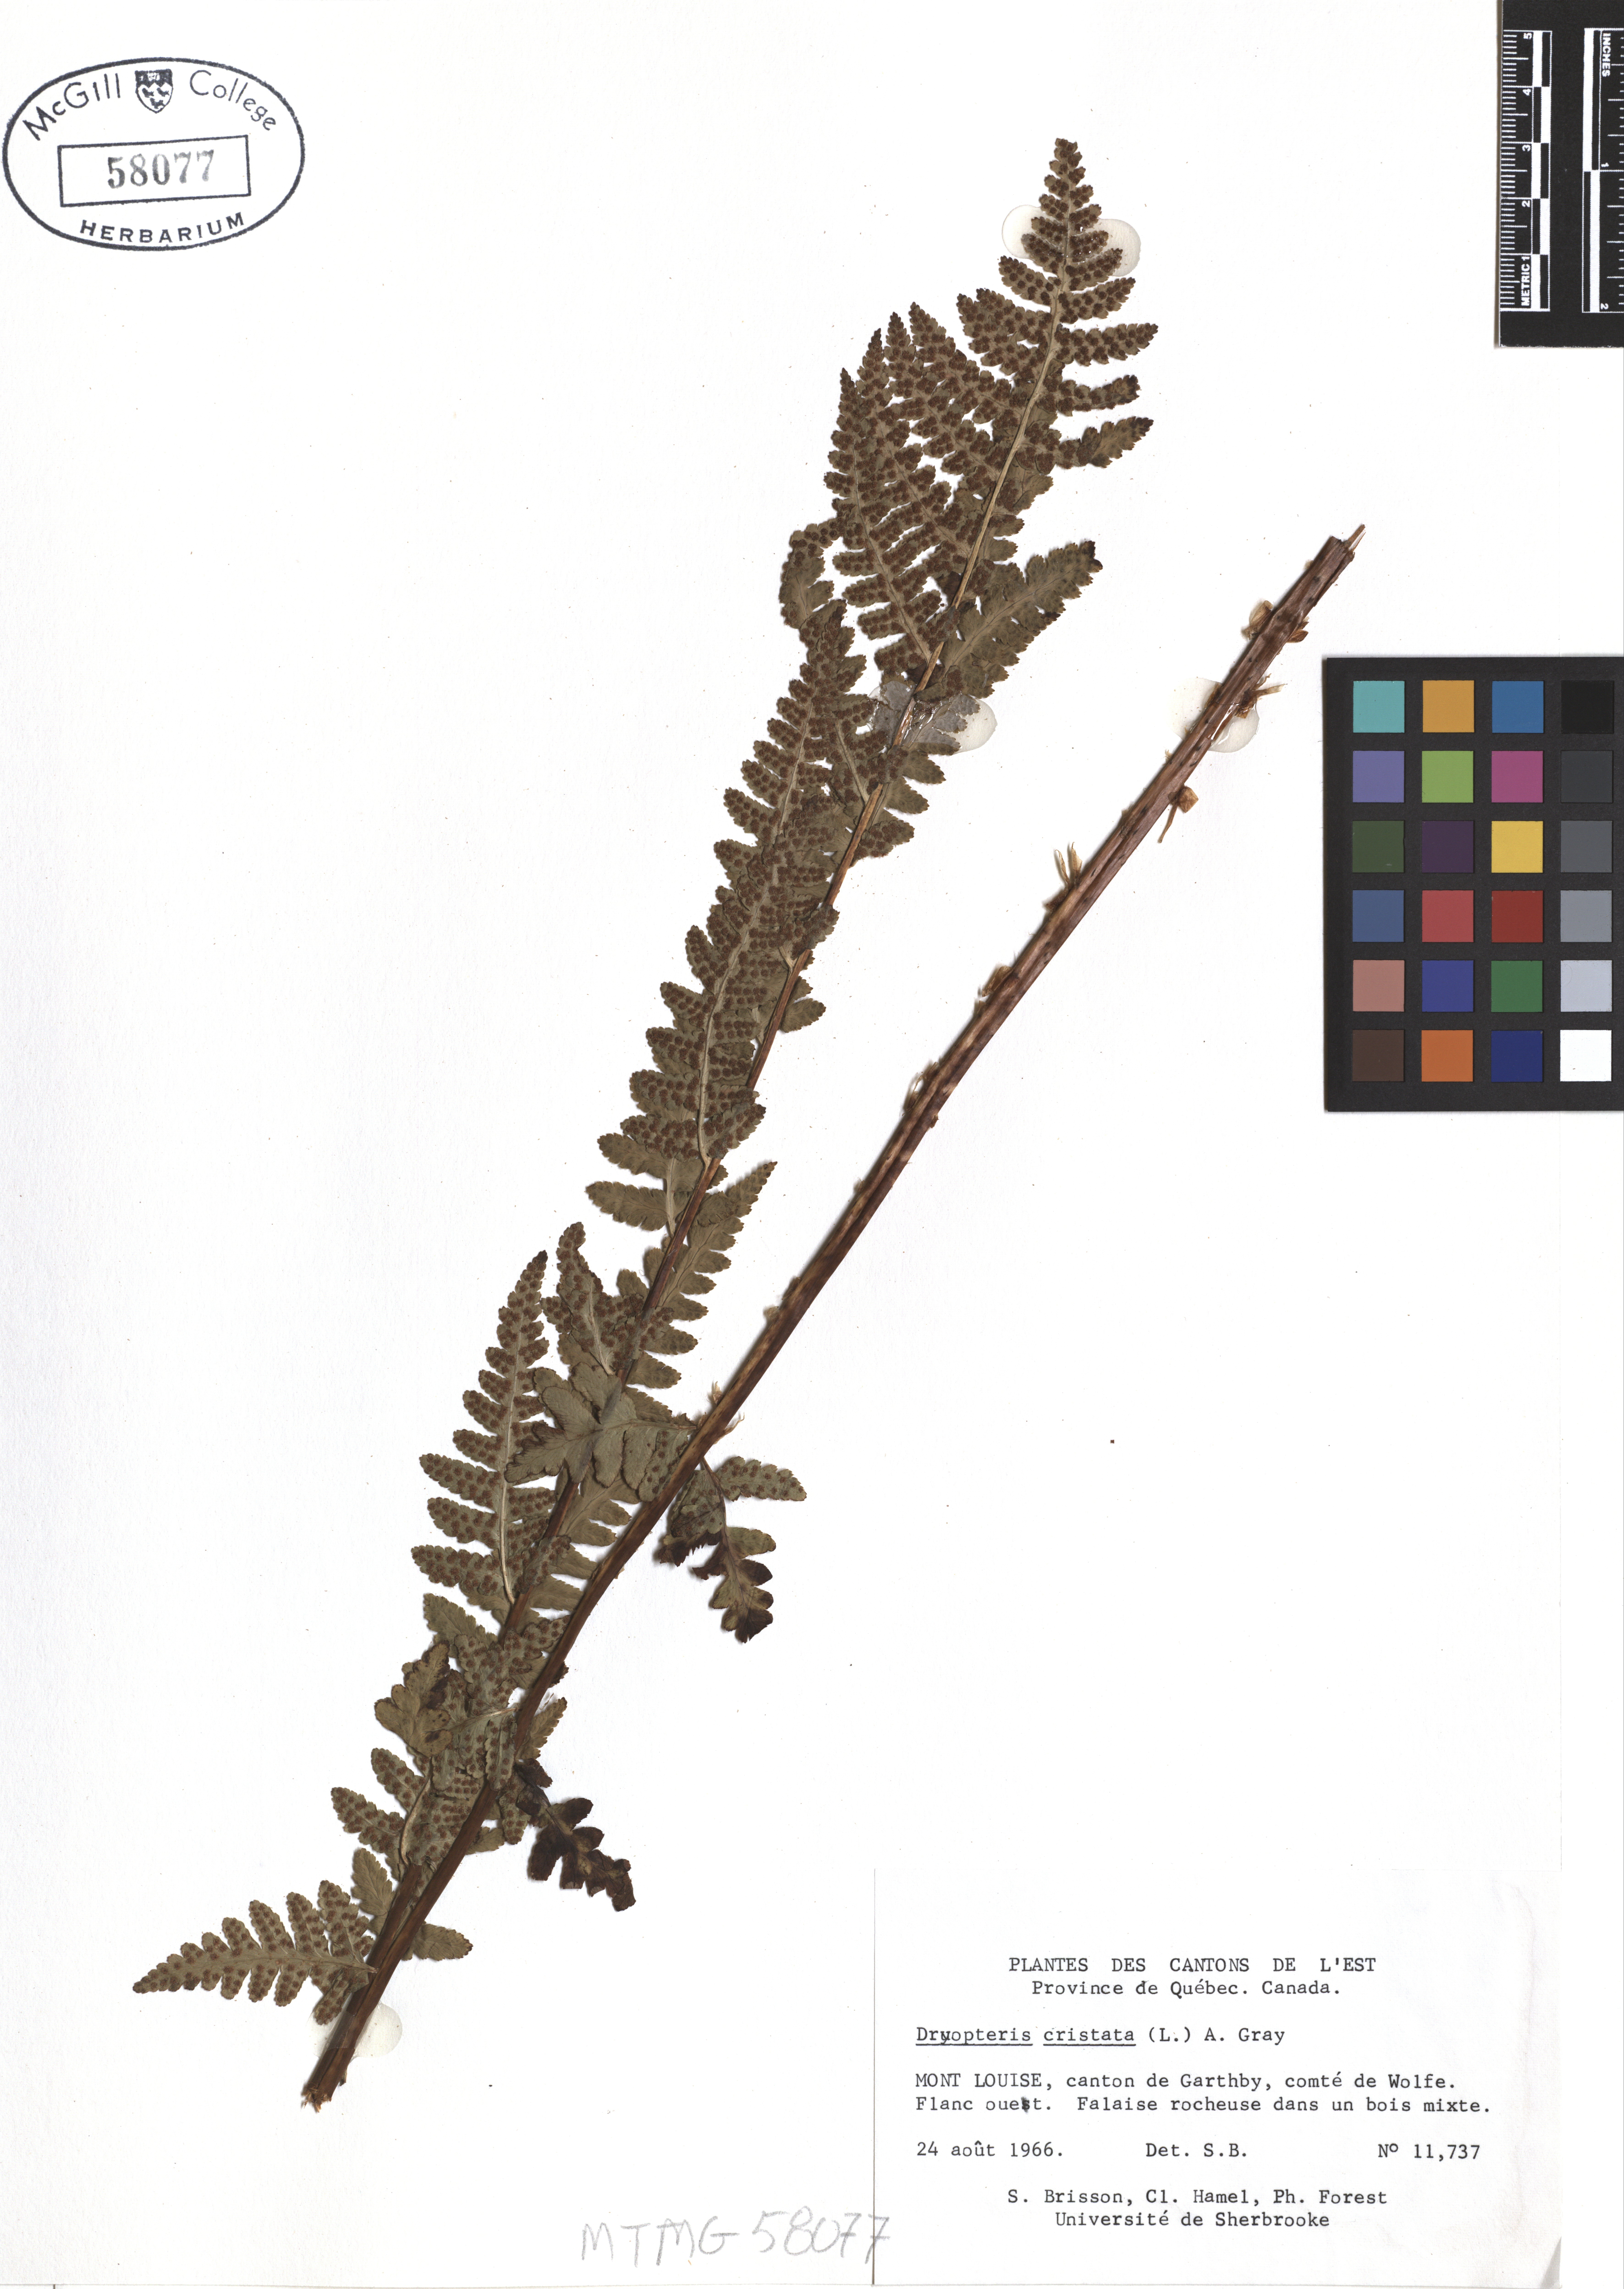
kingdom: Plantae
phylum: Tracheophyta
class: Polypodiopsida
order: Polypodiales
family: Dryopteridaceae
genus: Dryopteris
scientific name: Dryopteris cristata
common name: Crested wood fern
